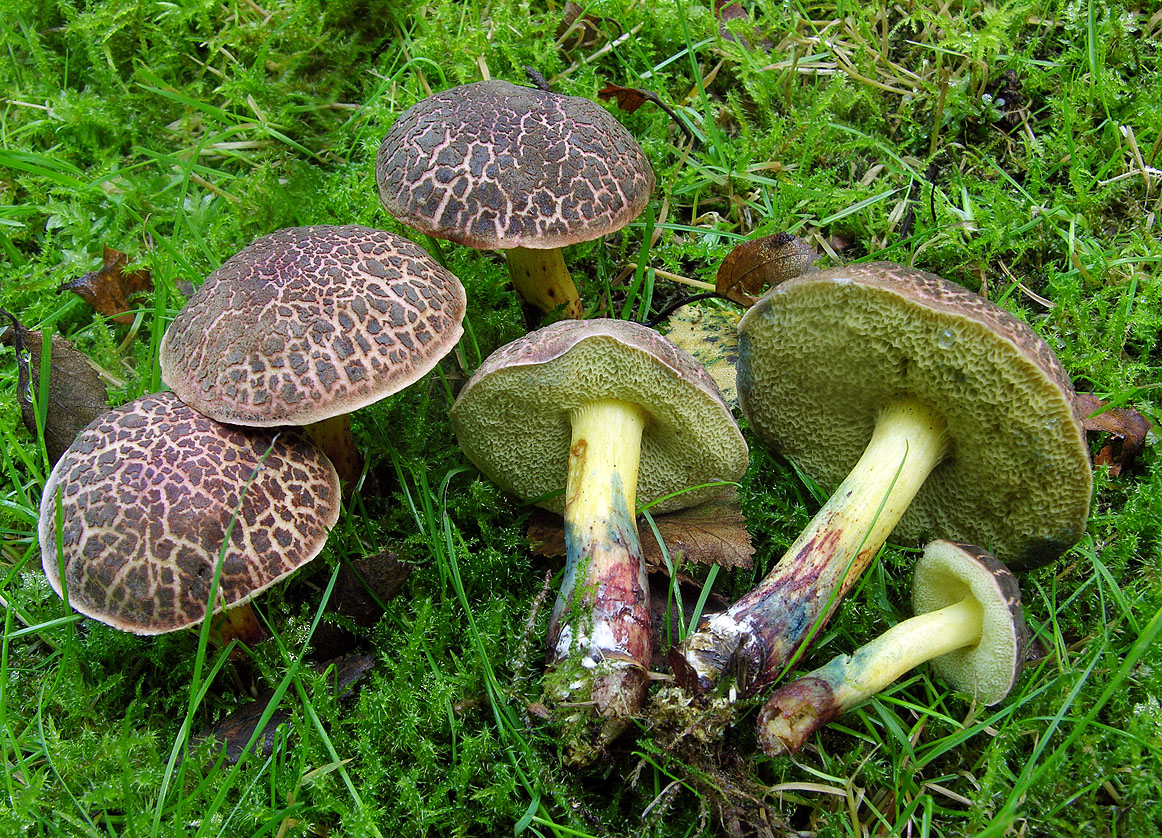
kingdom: Fungi
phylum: Basidiomycota
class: Agaricomycetes
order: Boletales
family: Boletaceae
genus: Xerocomellus
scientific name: Xerocomellus cisalpinus
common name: finsprukken rørhat
